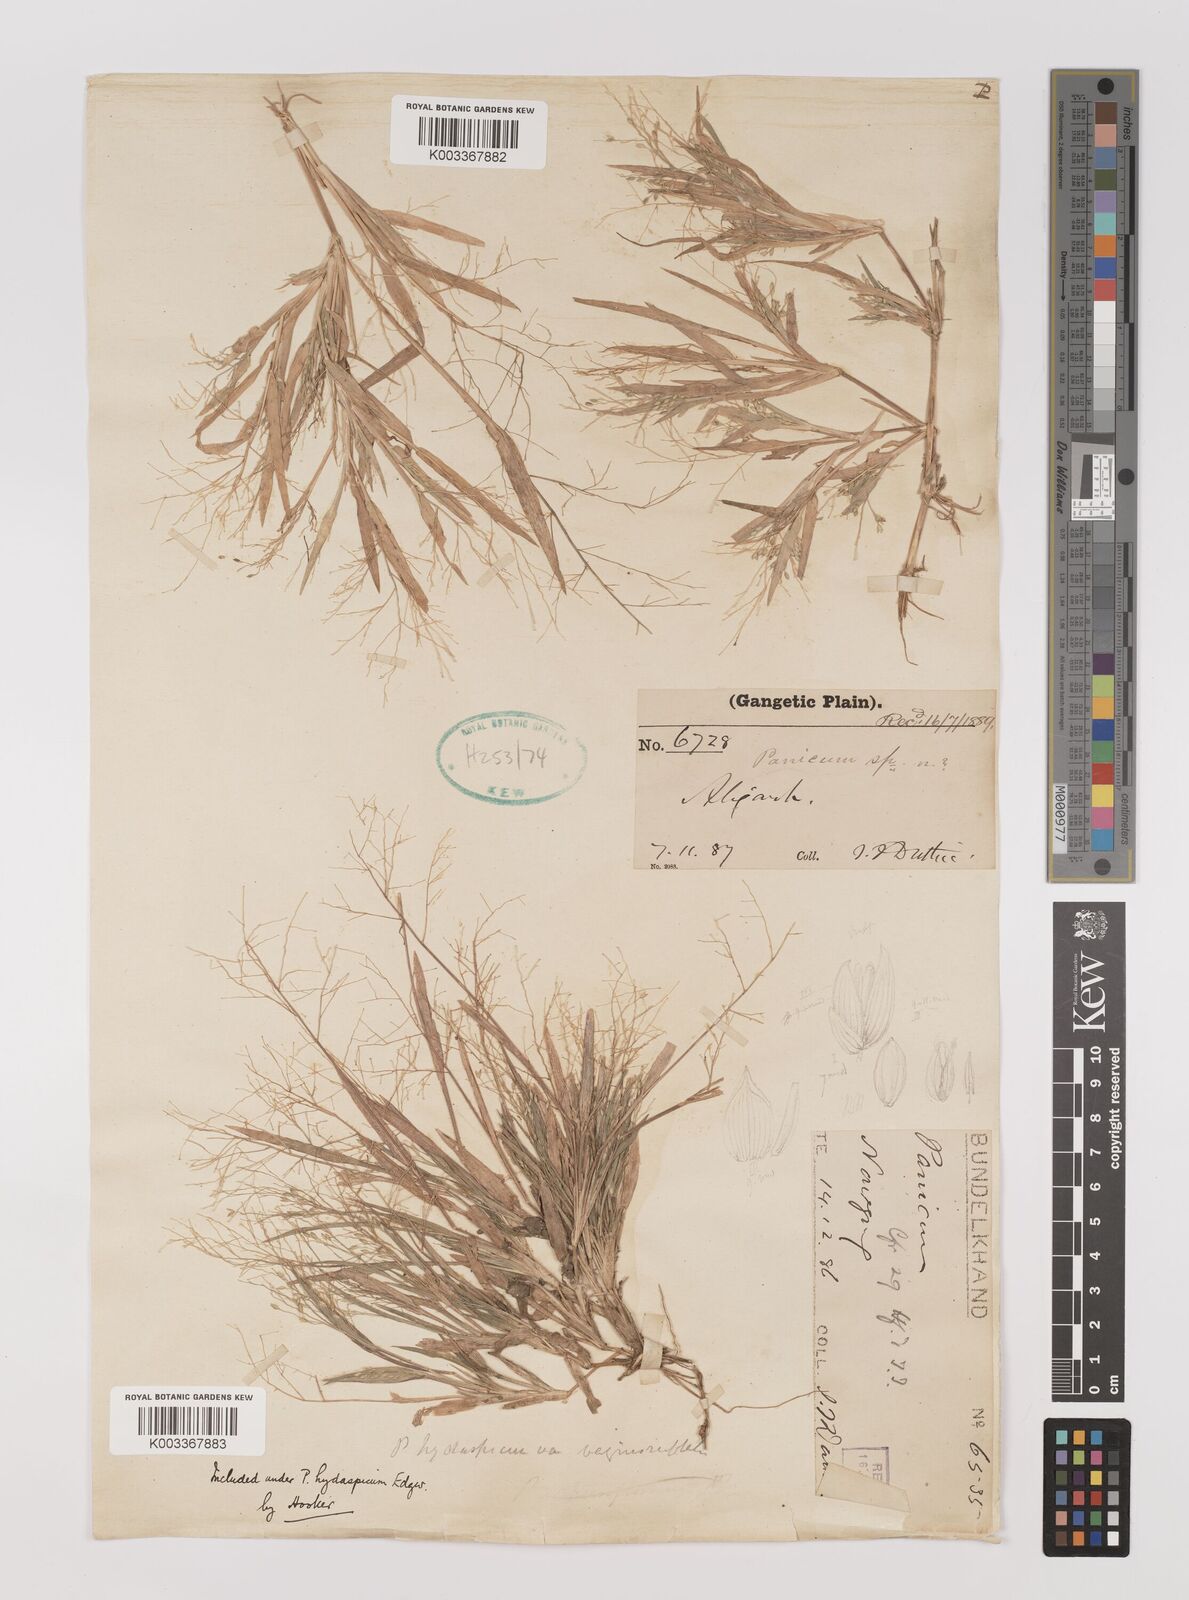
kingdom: Plantae
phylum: Tracheophyta
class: Liliopsida
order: Poales
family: Poaceae
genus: Panicum
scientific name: Panicum atrosanguineum
